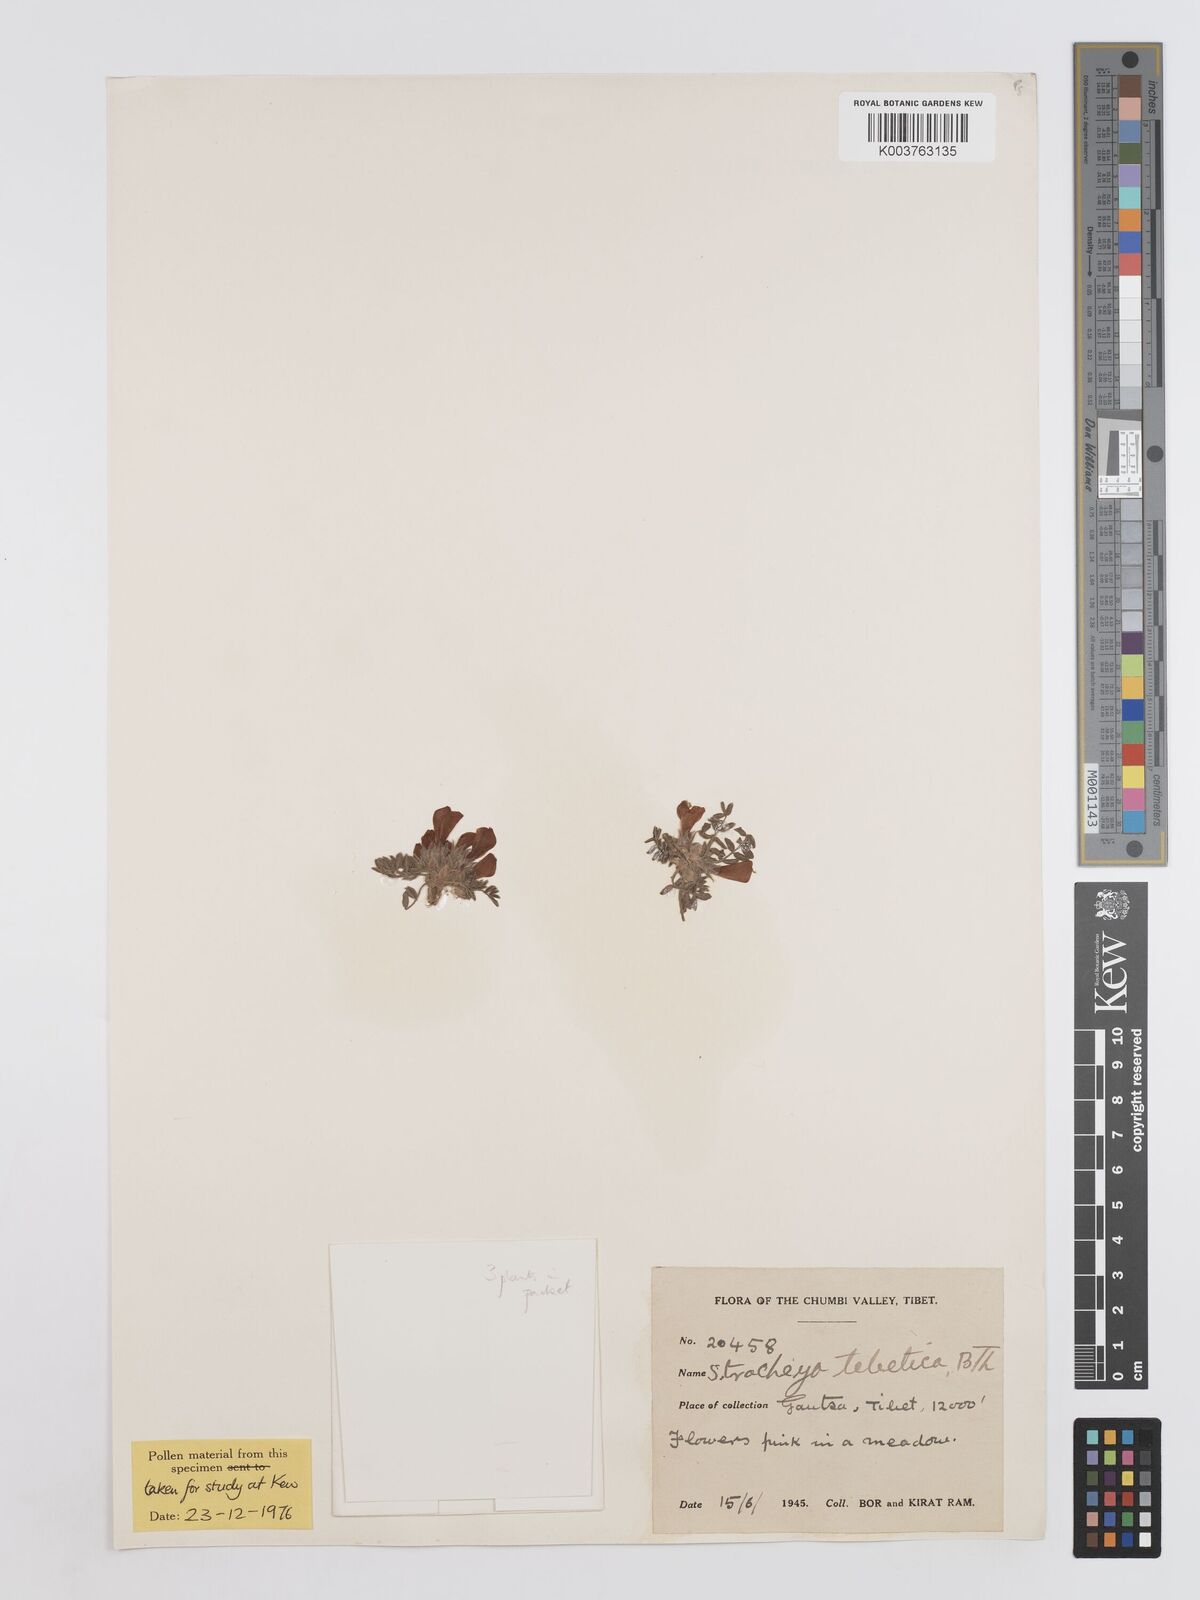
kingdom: Plantae
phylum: Tracheophyta
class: Magnoliopsida
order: Fabales
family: Fabaceae
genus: Hedysarum
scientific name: Hedysarum tibeticum
